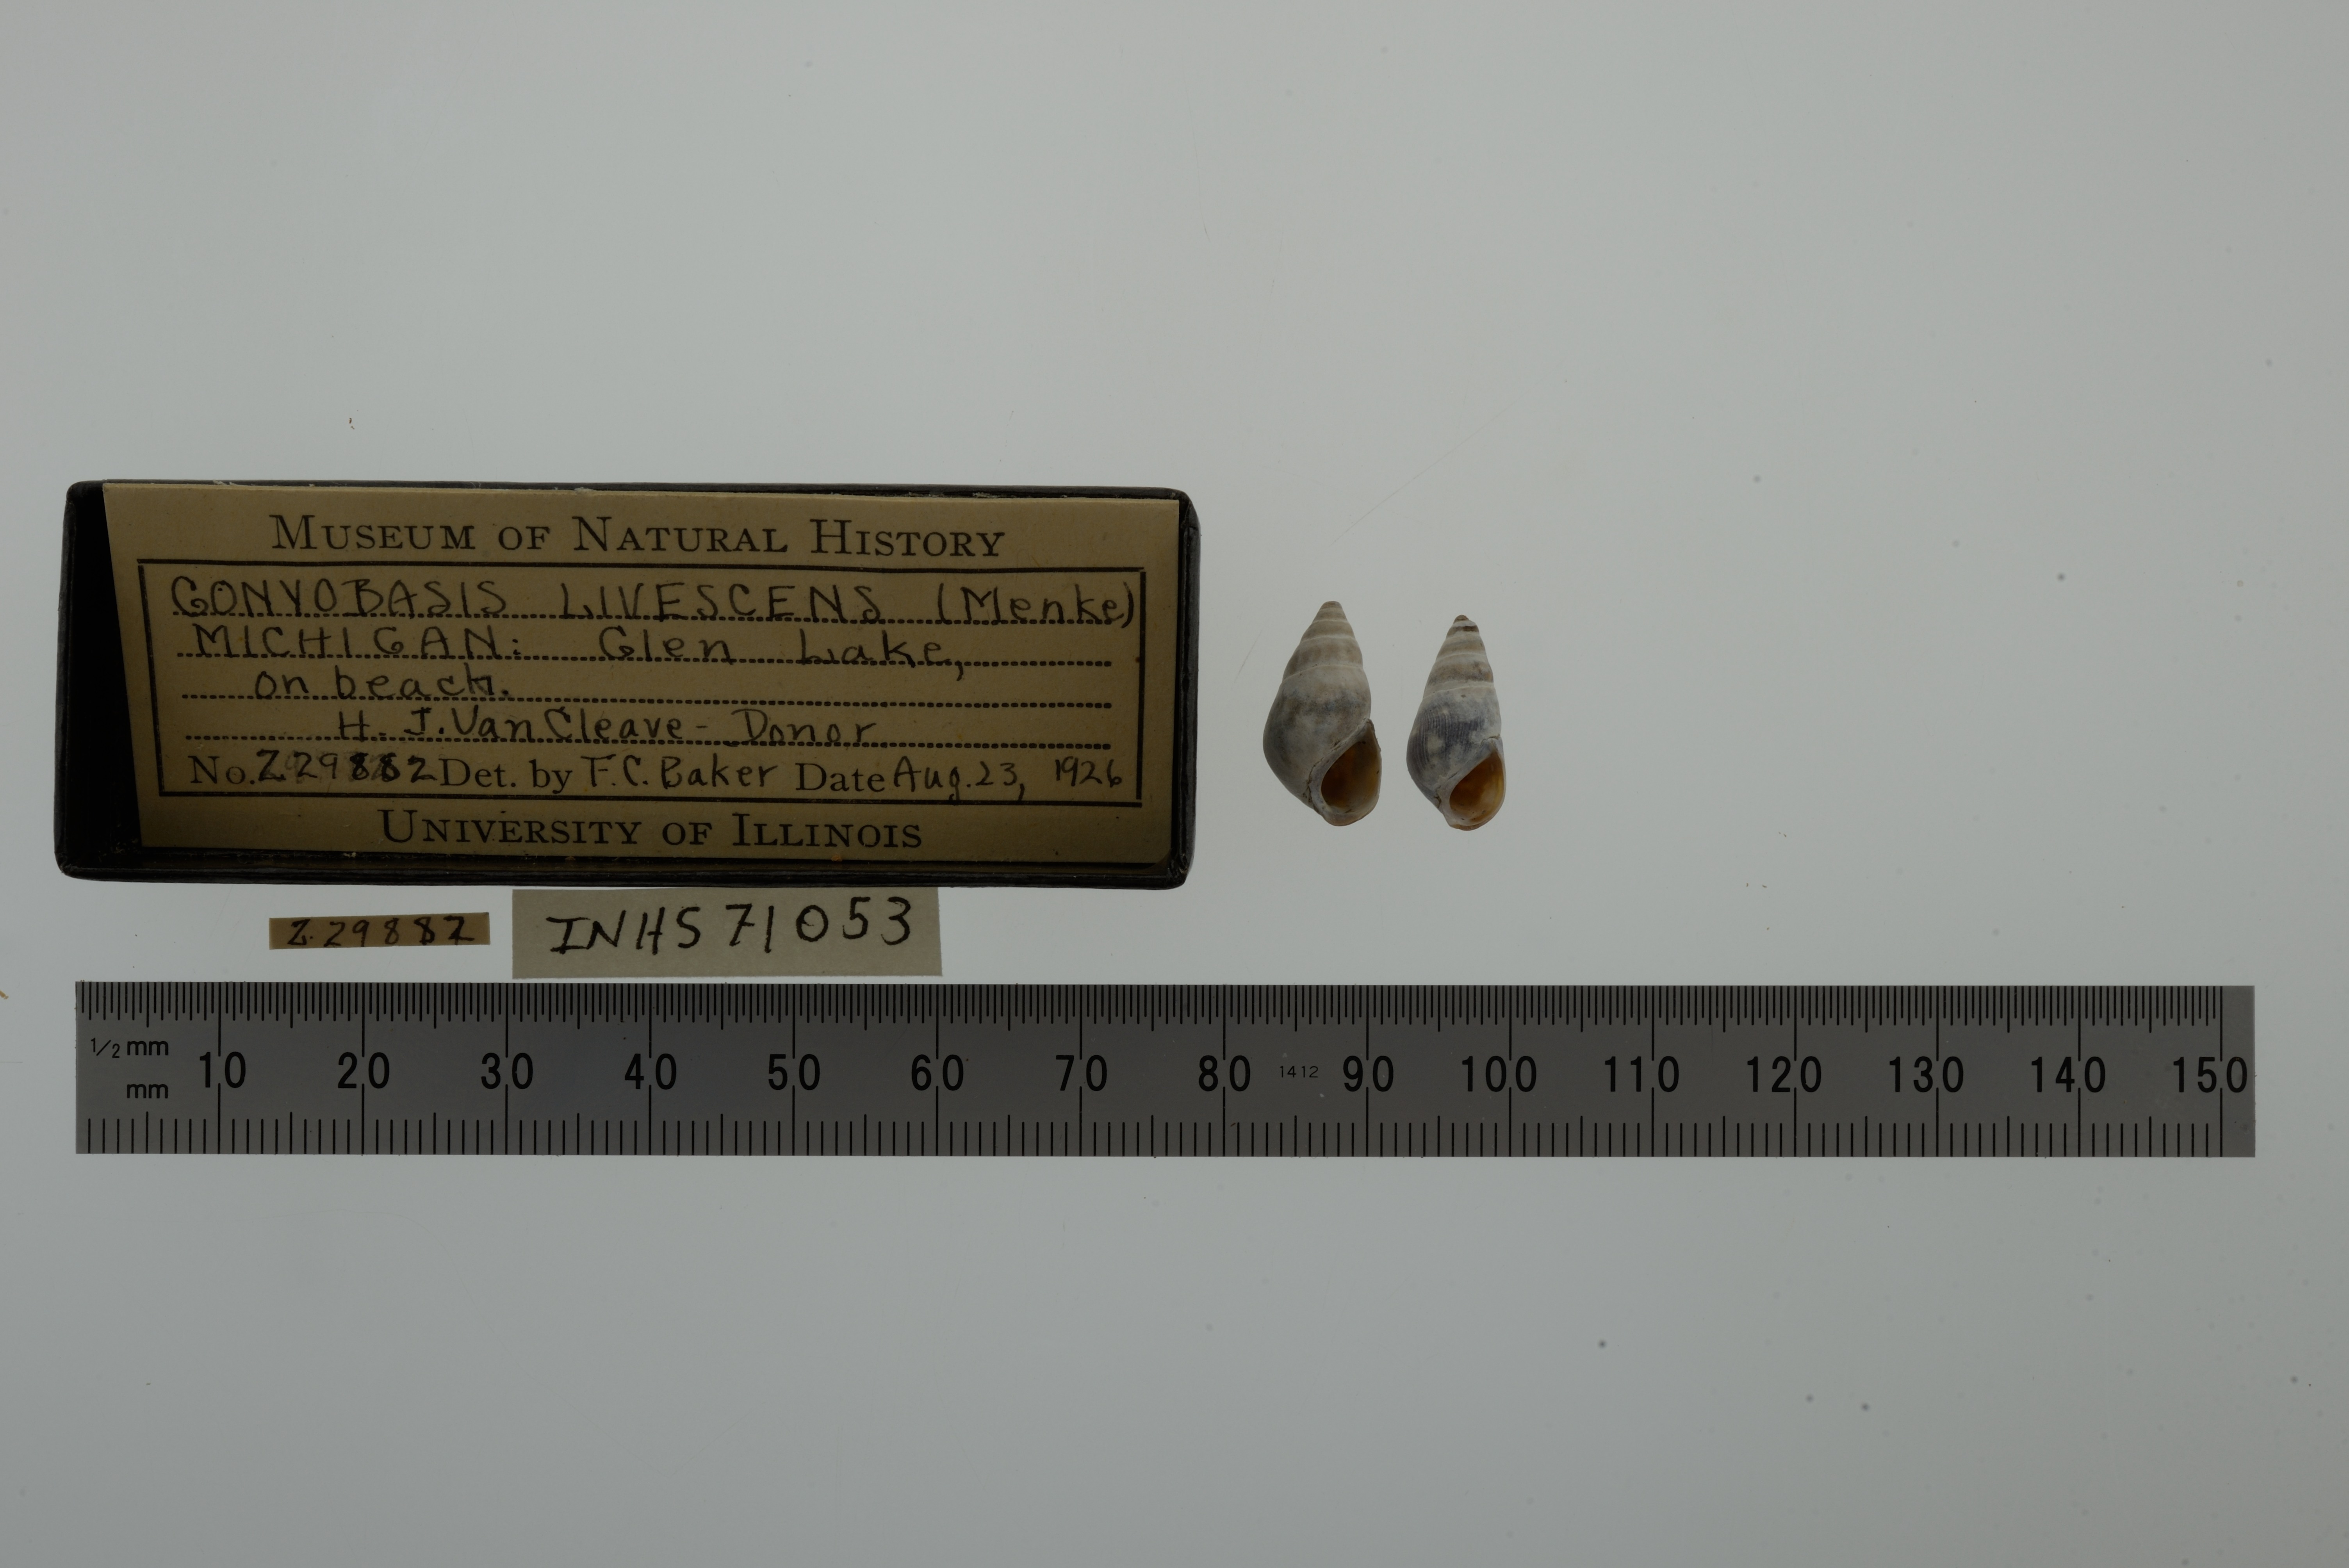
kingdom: Animalia
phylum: Mollusca
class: Gastropoda
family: Pleuroceridae
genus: Elimia
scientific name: Elimia livescens
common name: Liver elimia
